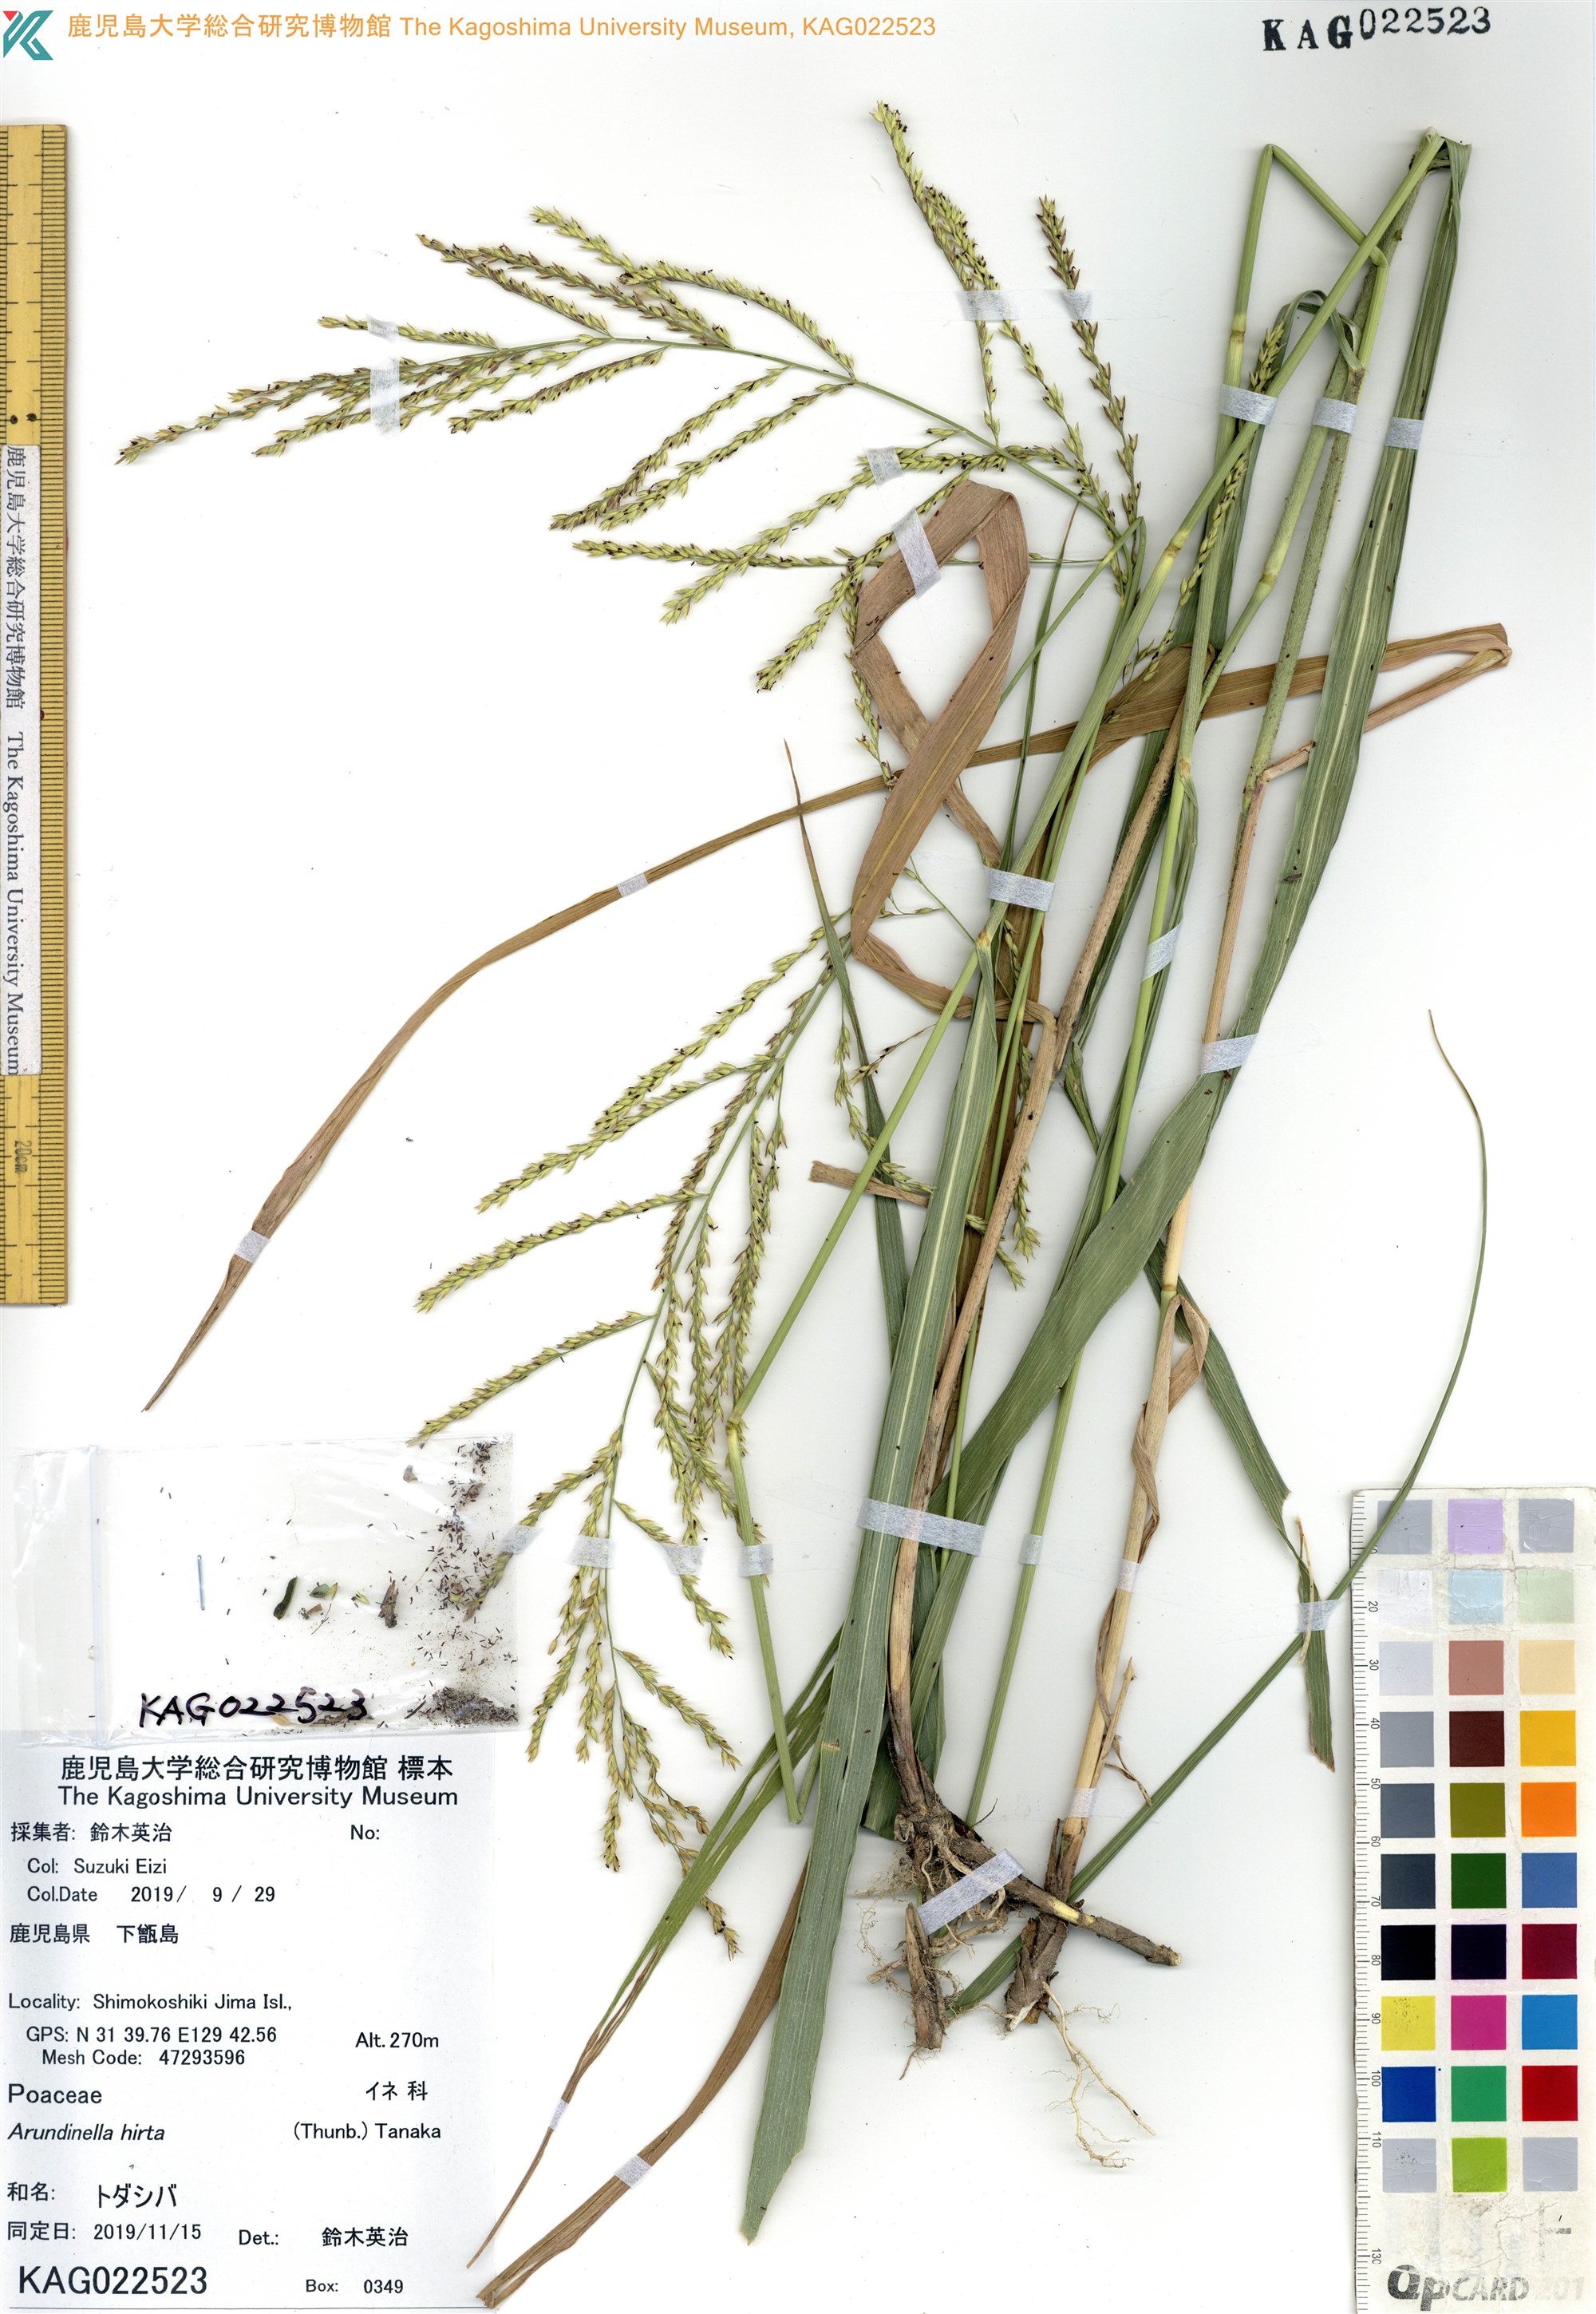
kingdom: Plantae
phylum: Tracheophyta
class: Liliopsida
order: Poales
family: Poaceae
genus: Arundinella
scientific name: Arundinella hirta
